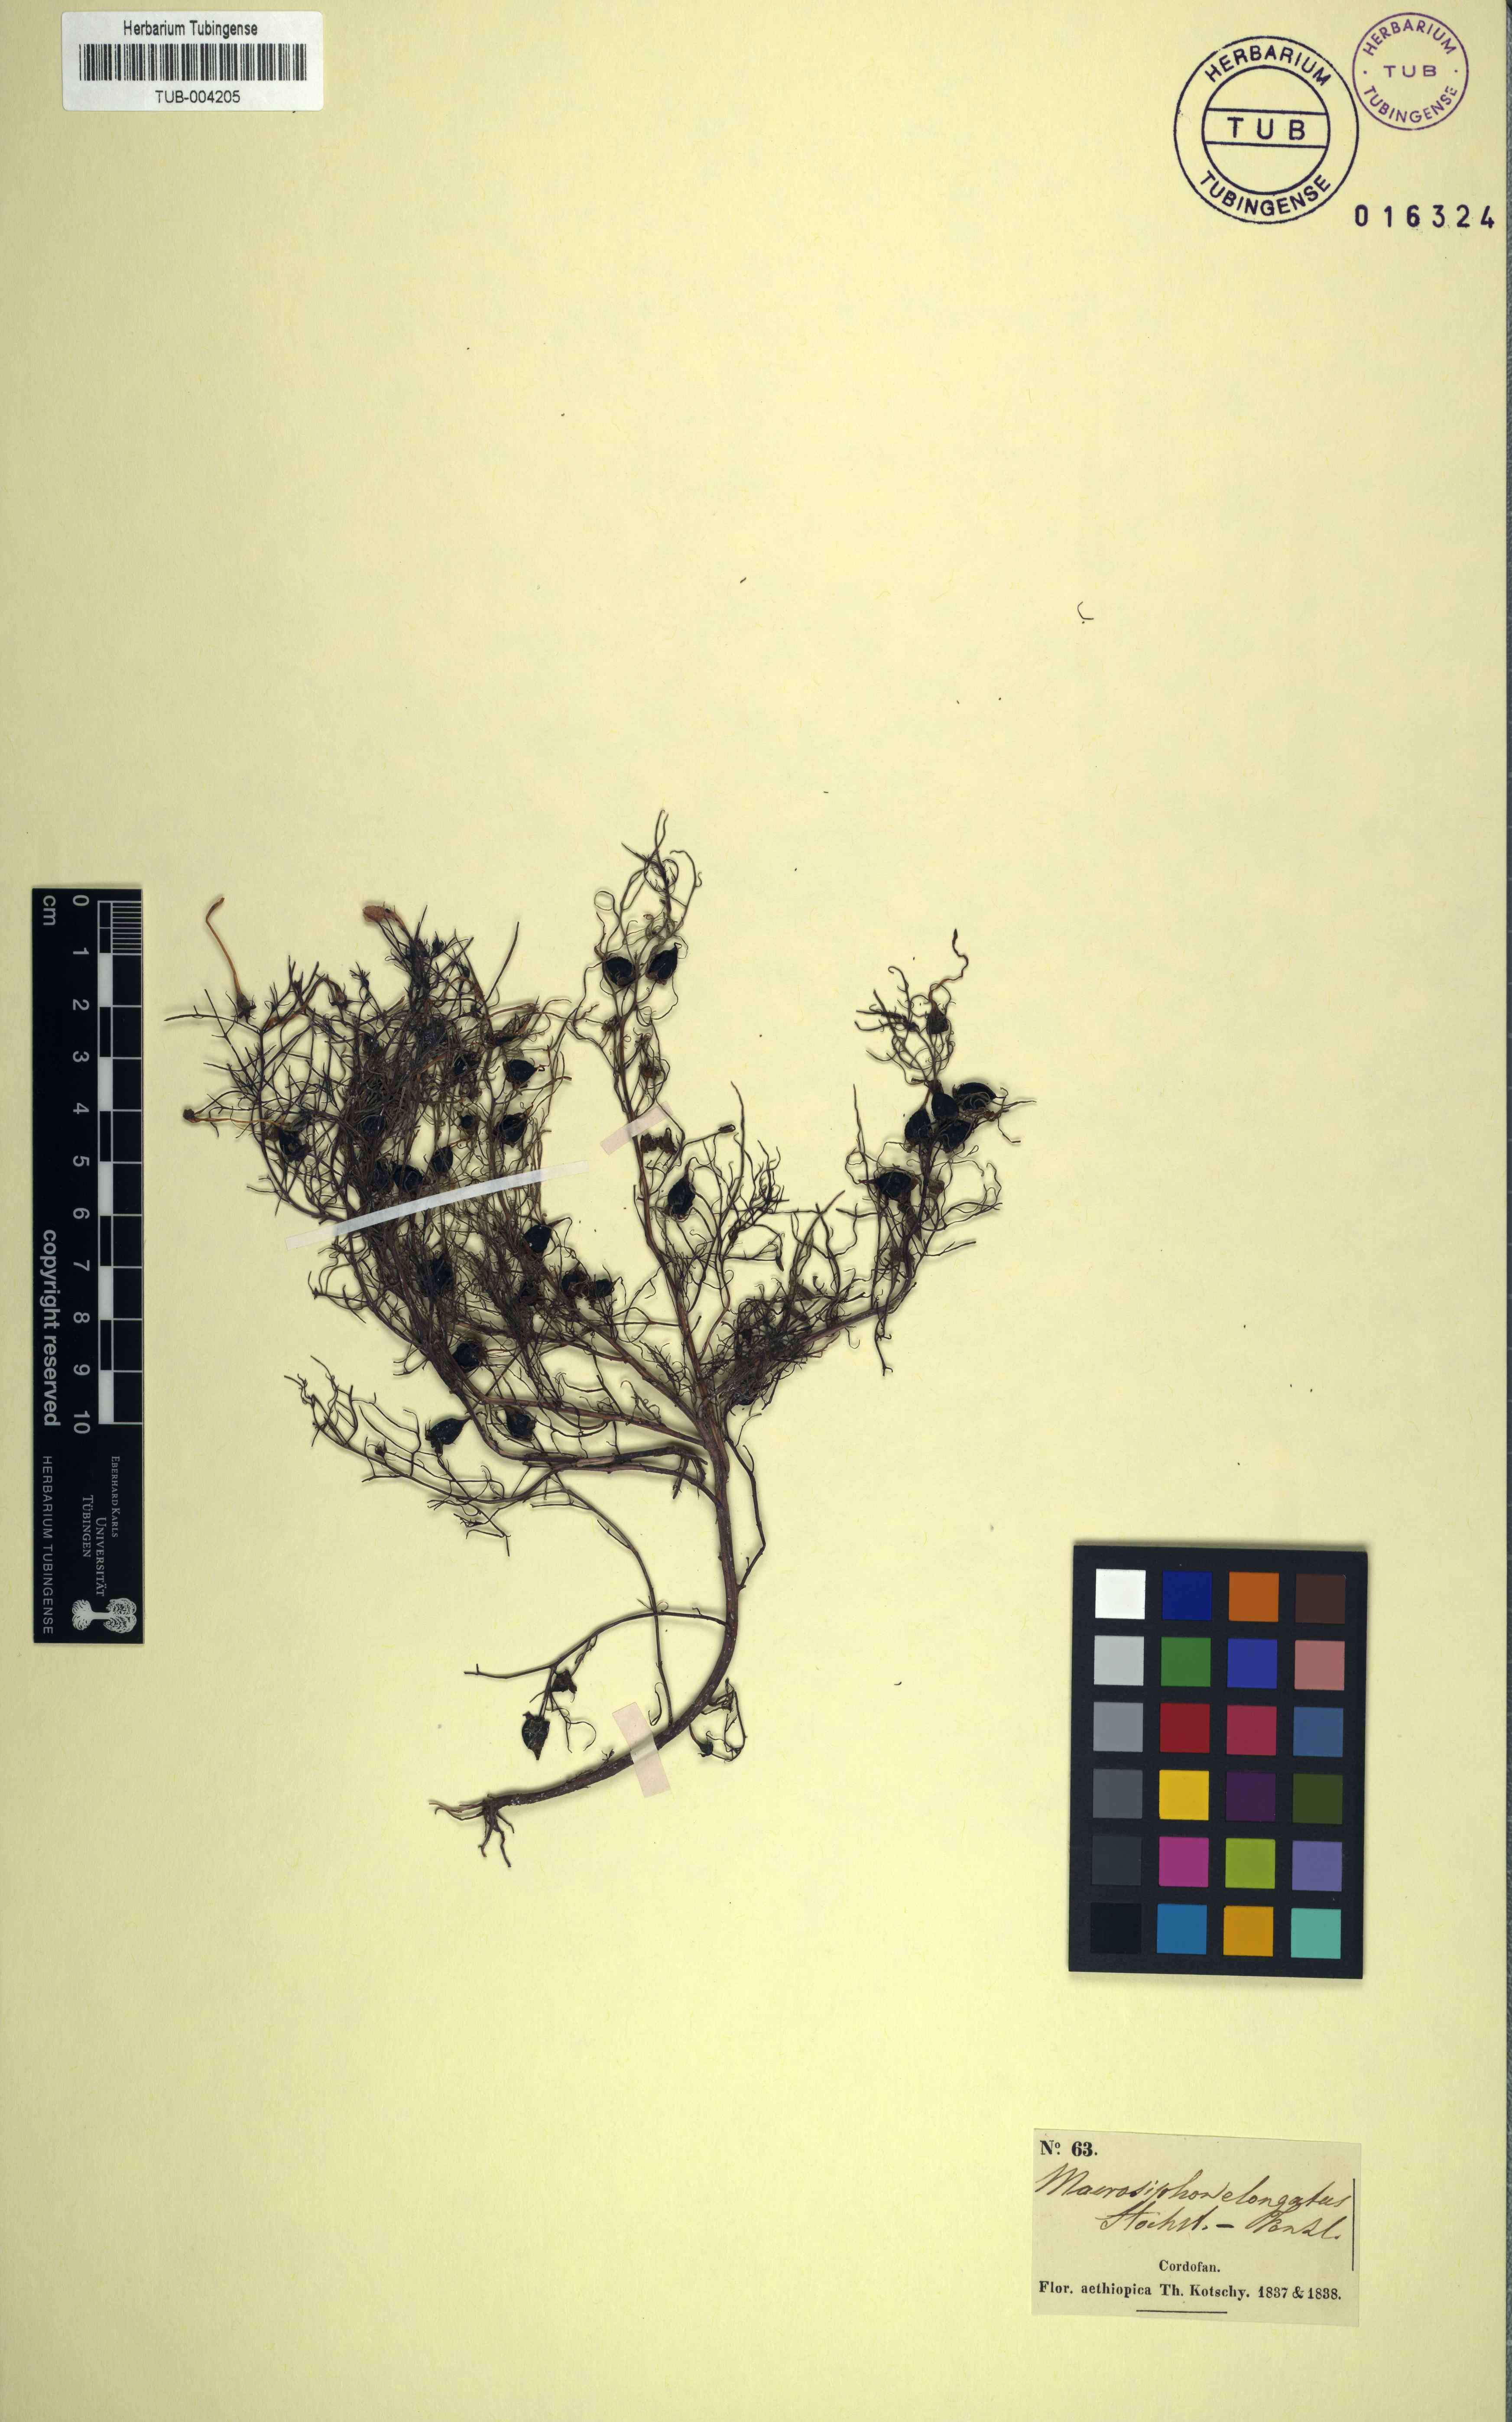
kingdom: Plantae
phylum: Tracheophyta
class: Magnoliopsida
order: Lamiales
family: Orobanchaceae
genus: Rhamphicarpa
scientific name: Rhamphicarpa elongata
